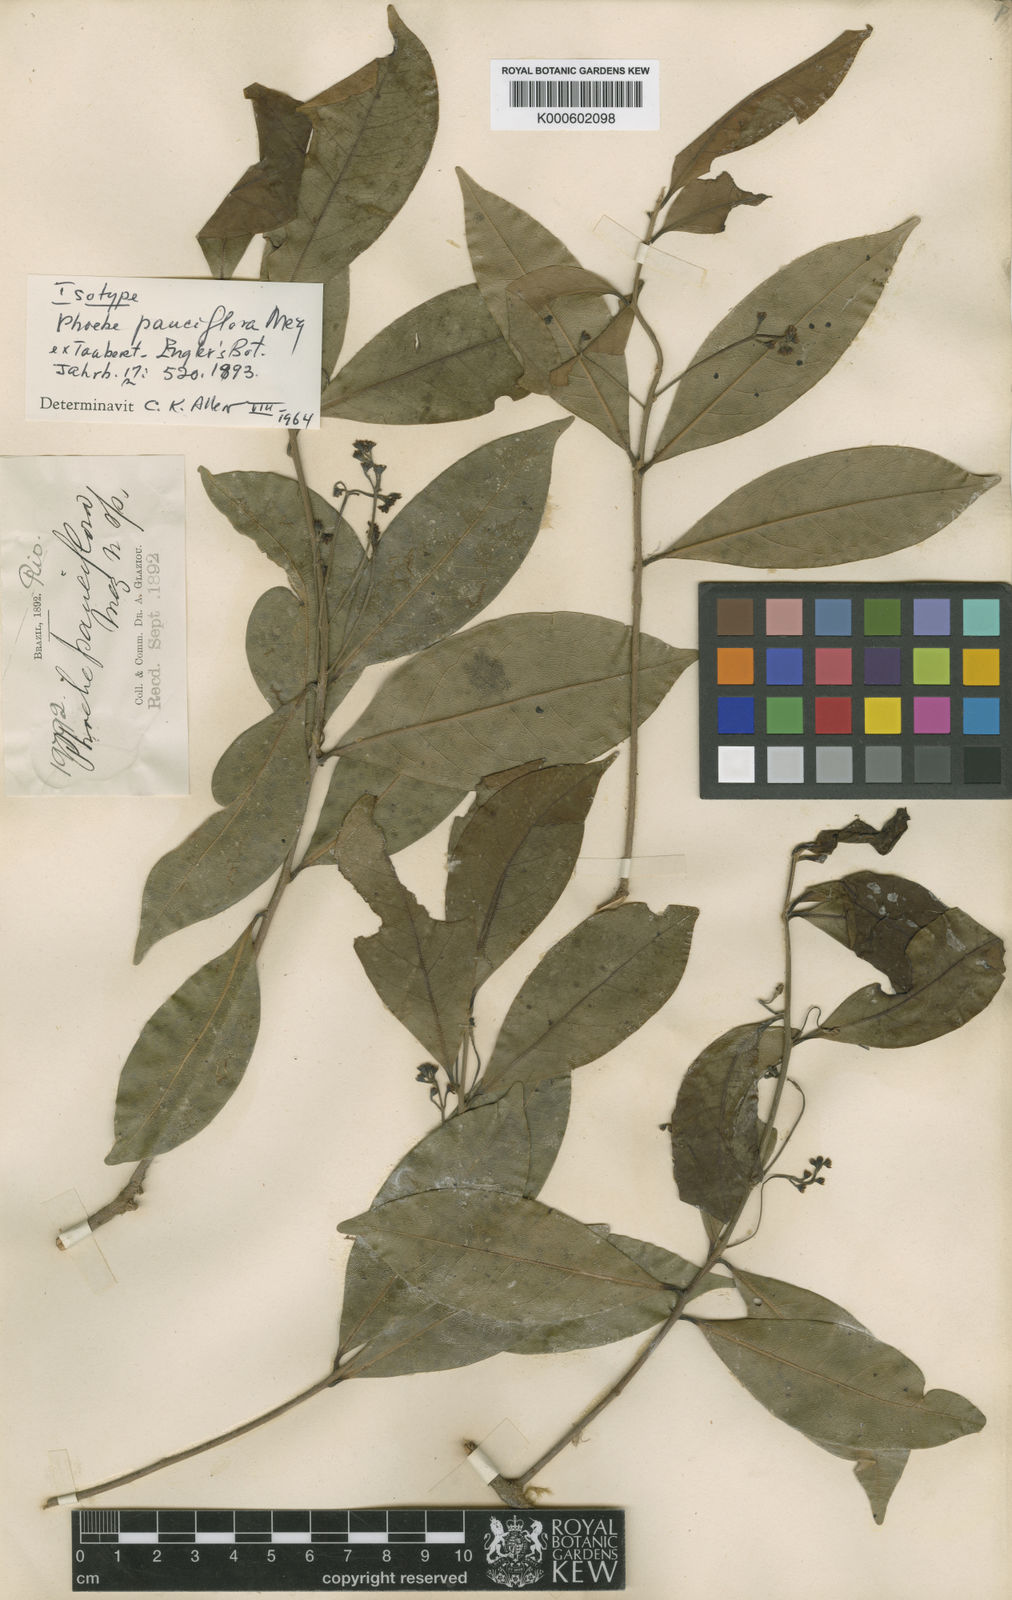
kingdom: Plantae
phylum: Tracheophyta
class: Magnoliopsida
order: Laurales
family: Lauraceae
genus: Aiouea
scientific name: Aiouea montana
